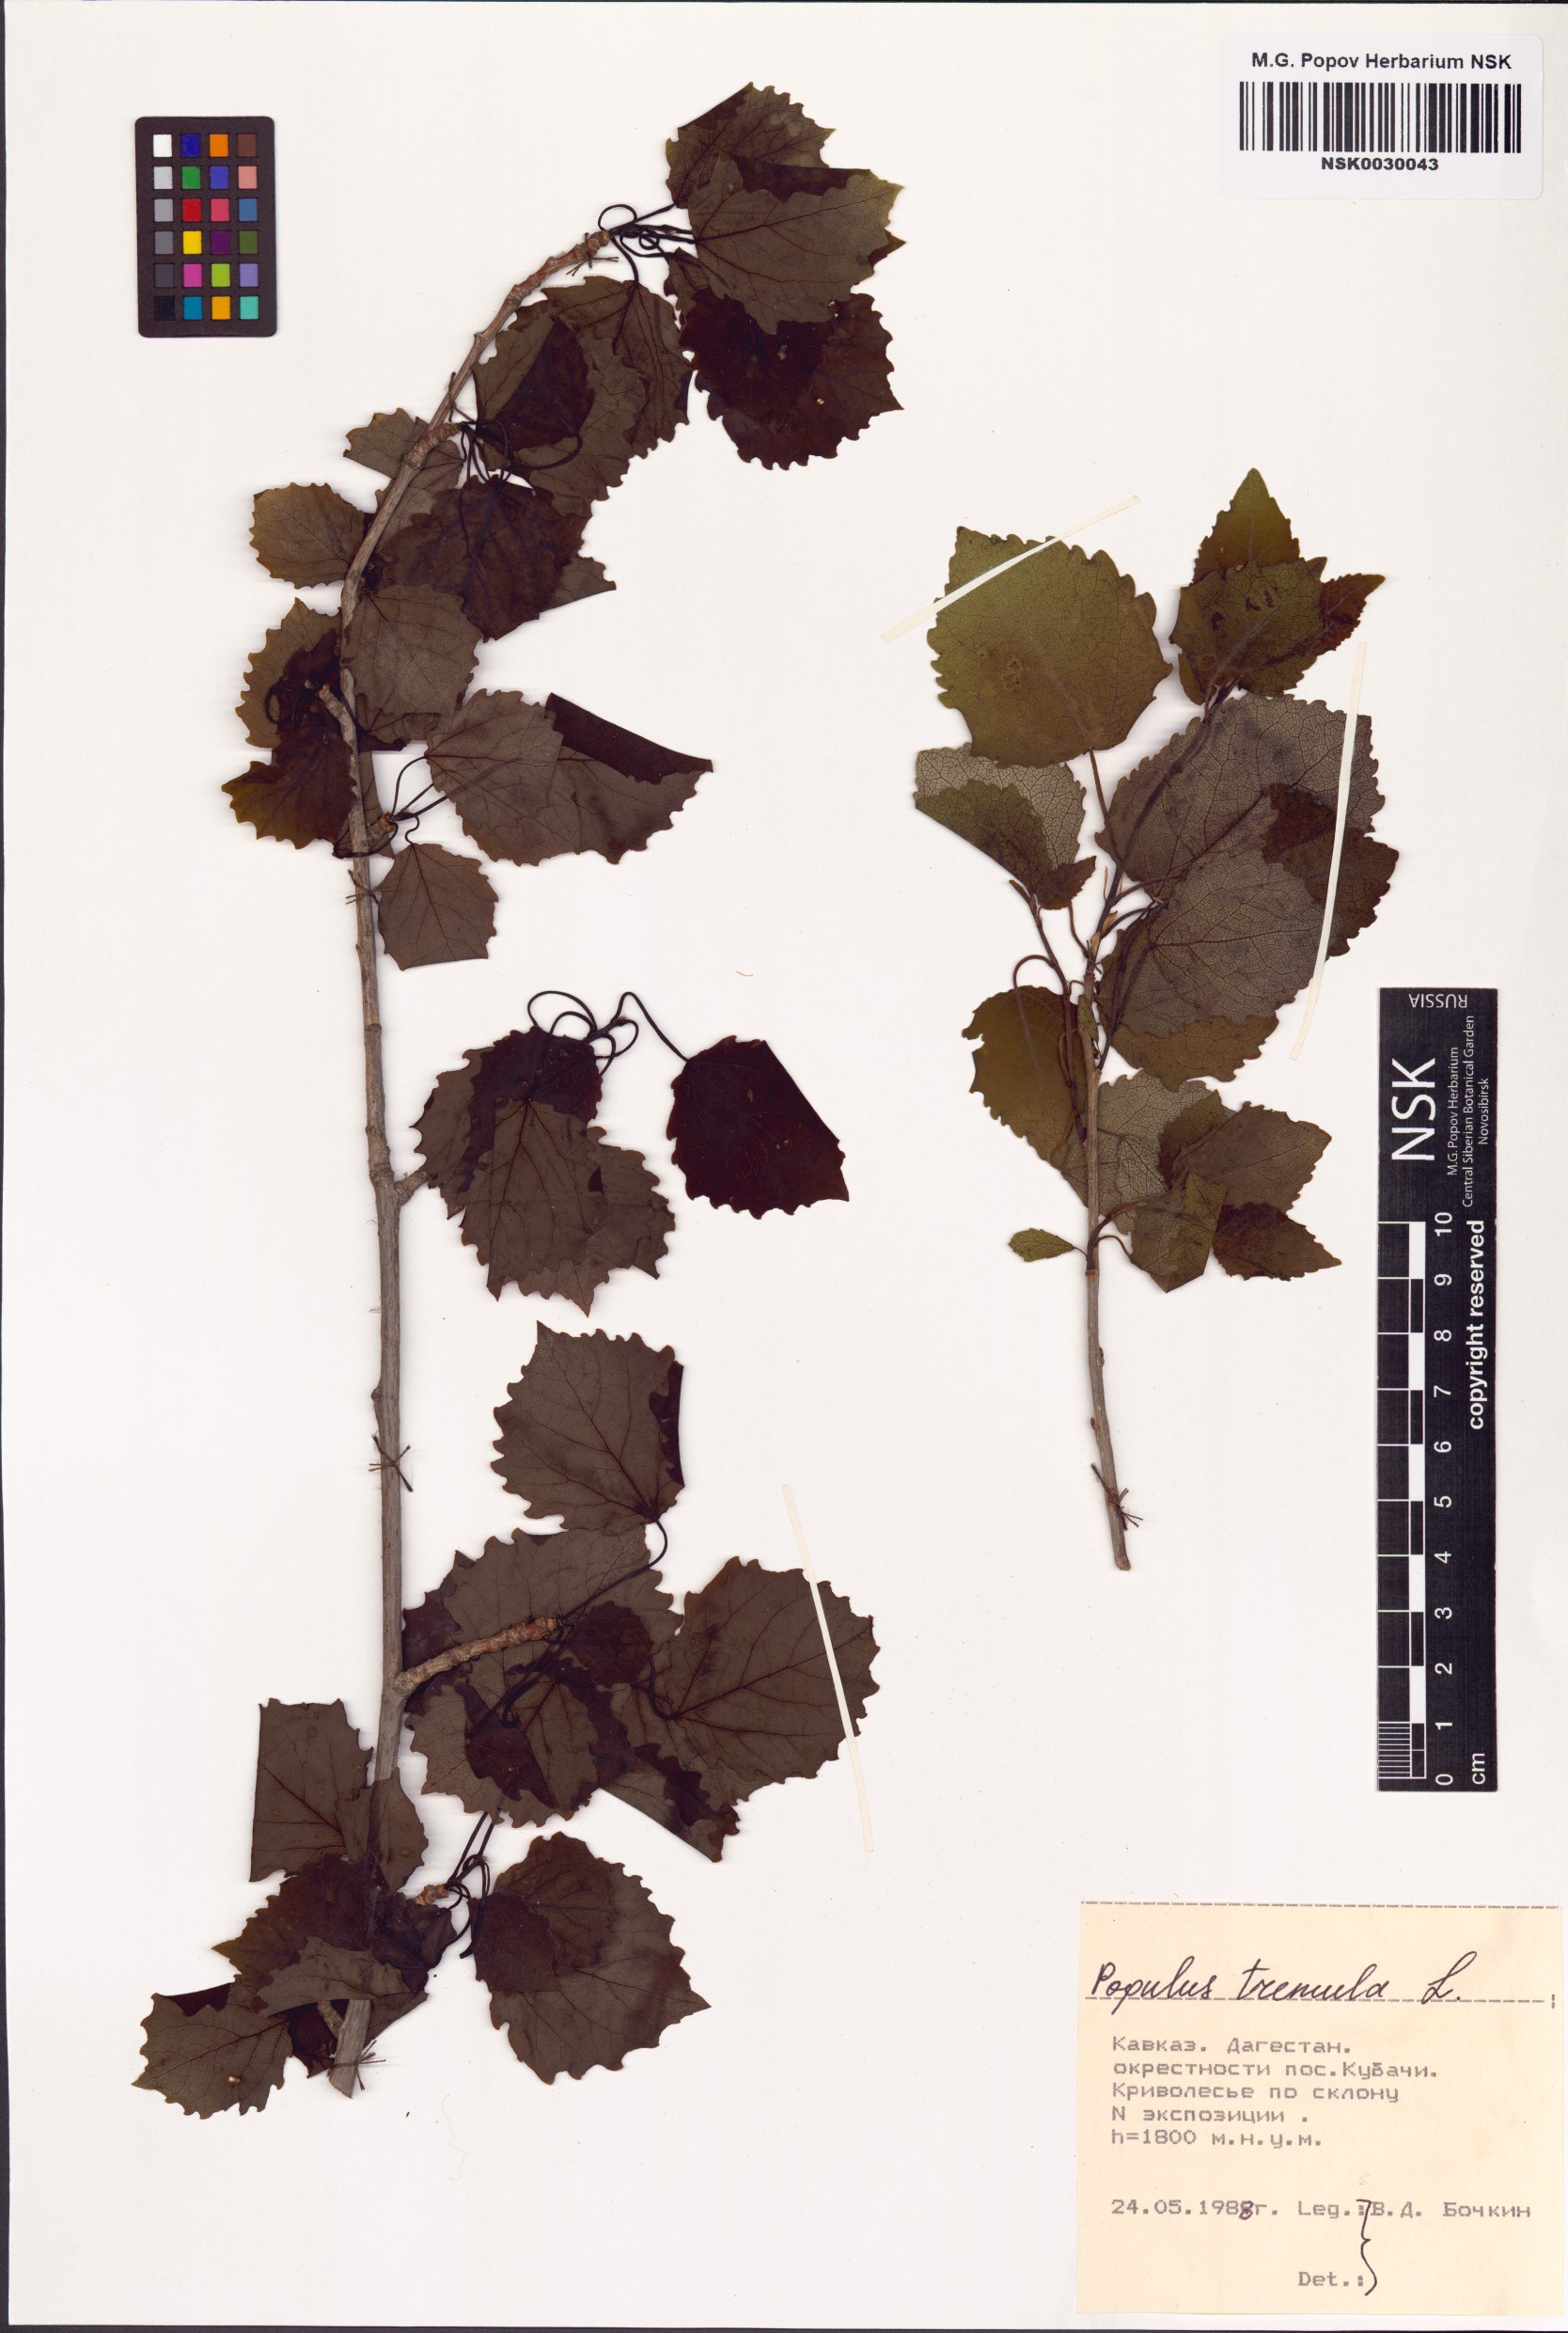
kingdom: Plantae
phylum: Tracheophyta
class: Magnoliopsida
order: Malpighiales
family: Salicaceae
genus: Populus
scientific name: Populus tremula
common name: European aspen
